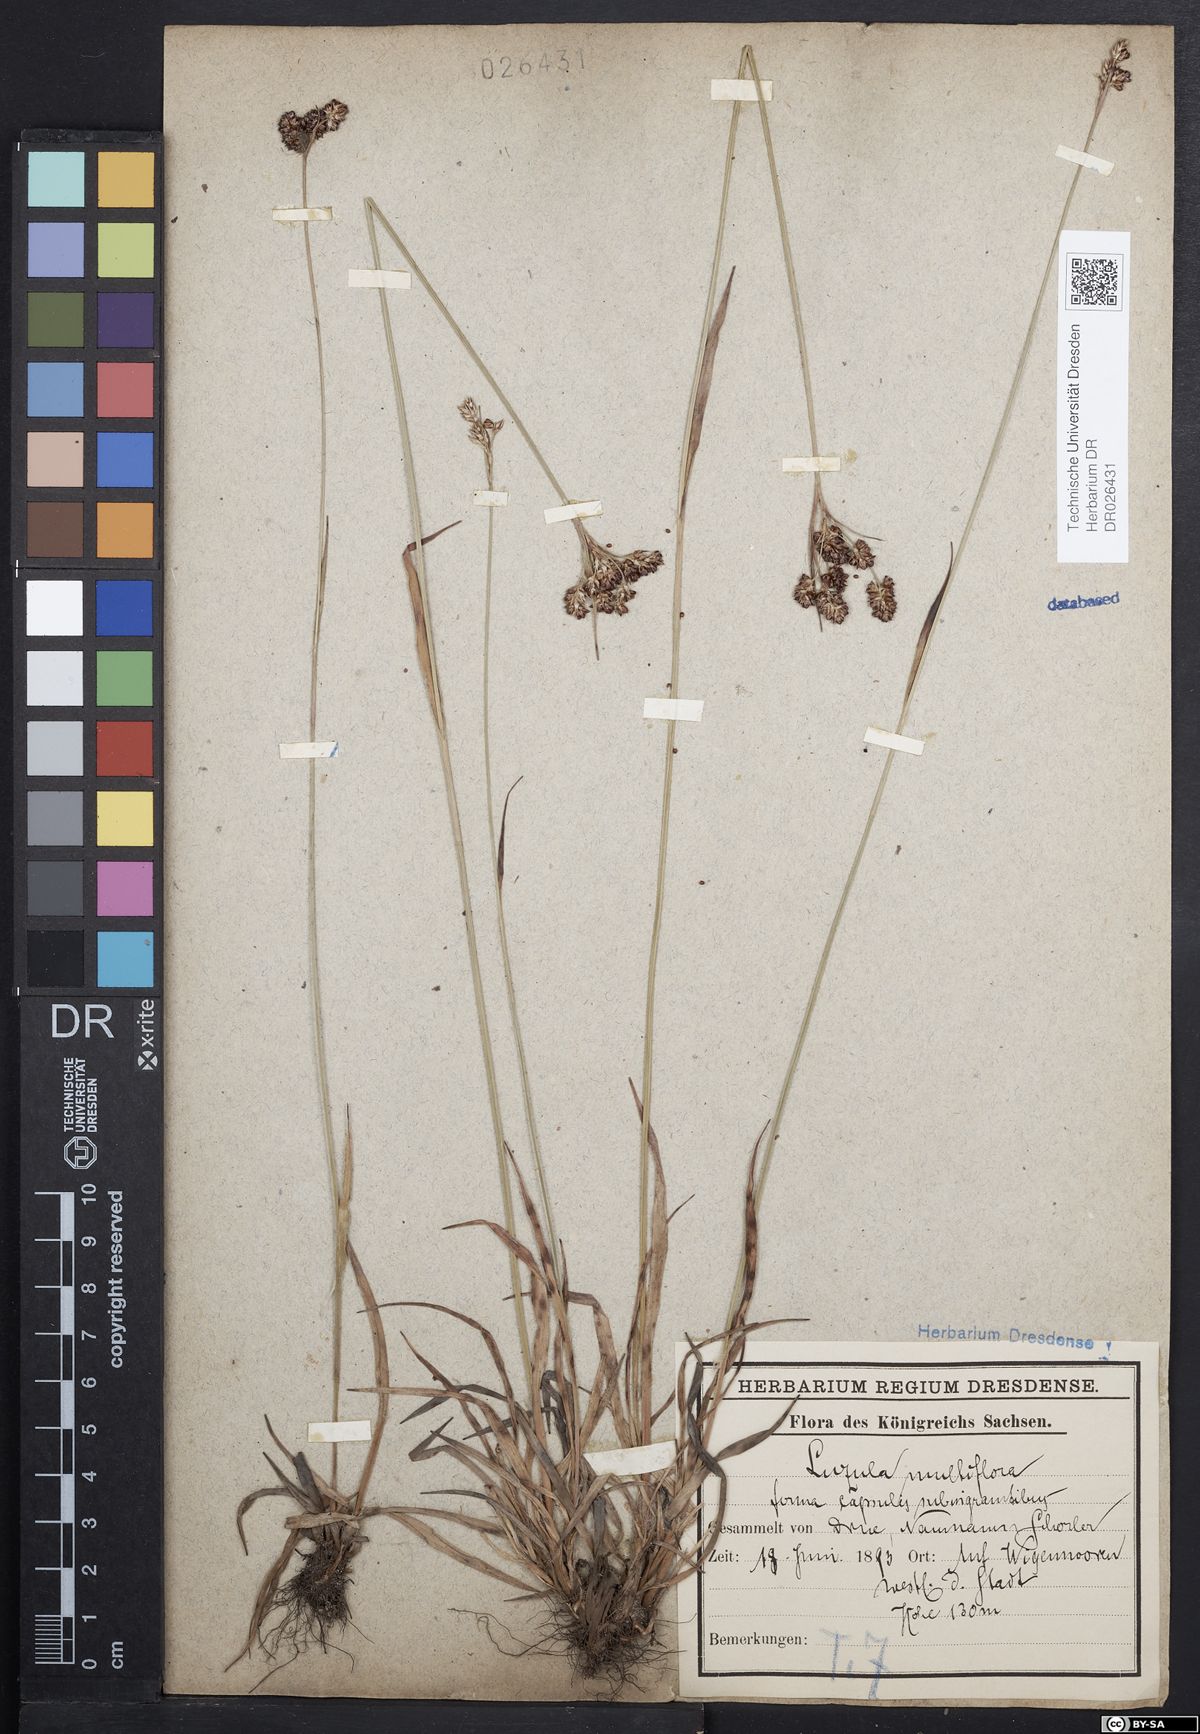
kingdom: Plantae
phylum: Tracheophyta
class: Liliopsida
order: Poales
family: Juncaceae
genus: Luzula
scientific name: Luzula multiflora
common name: Heath wood-rush
